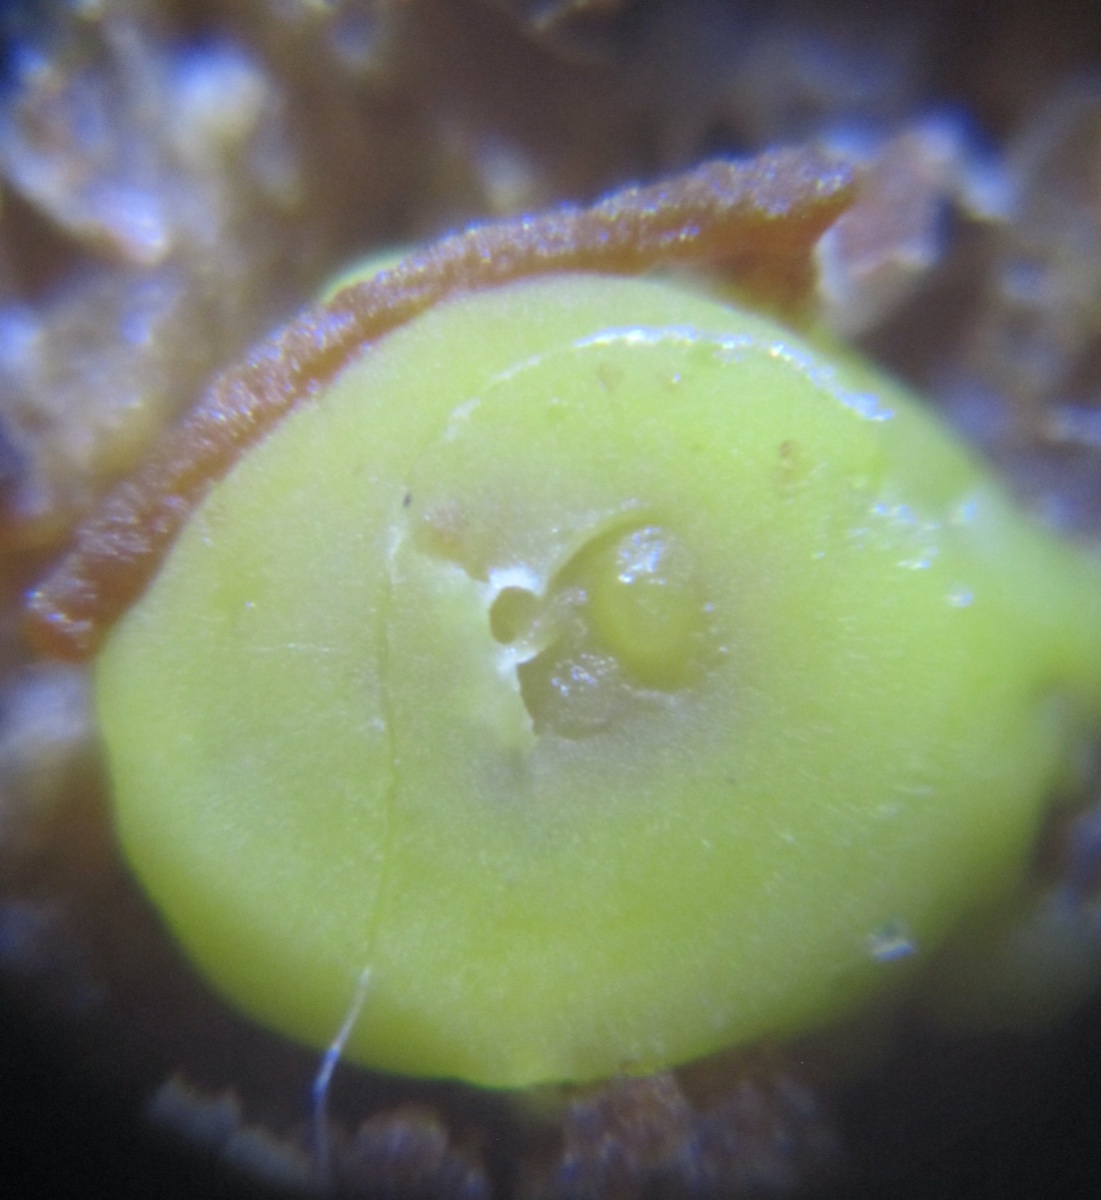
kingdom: Fungi
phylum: Ascomycota
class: Leotiomycetes
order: Helotiales
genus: Lemalis
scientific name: Lemalis aurea
